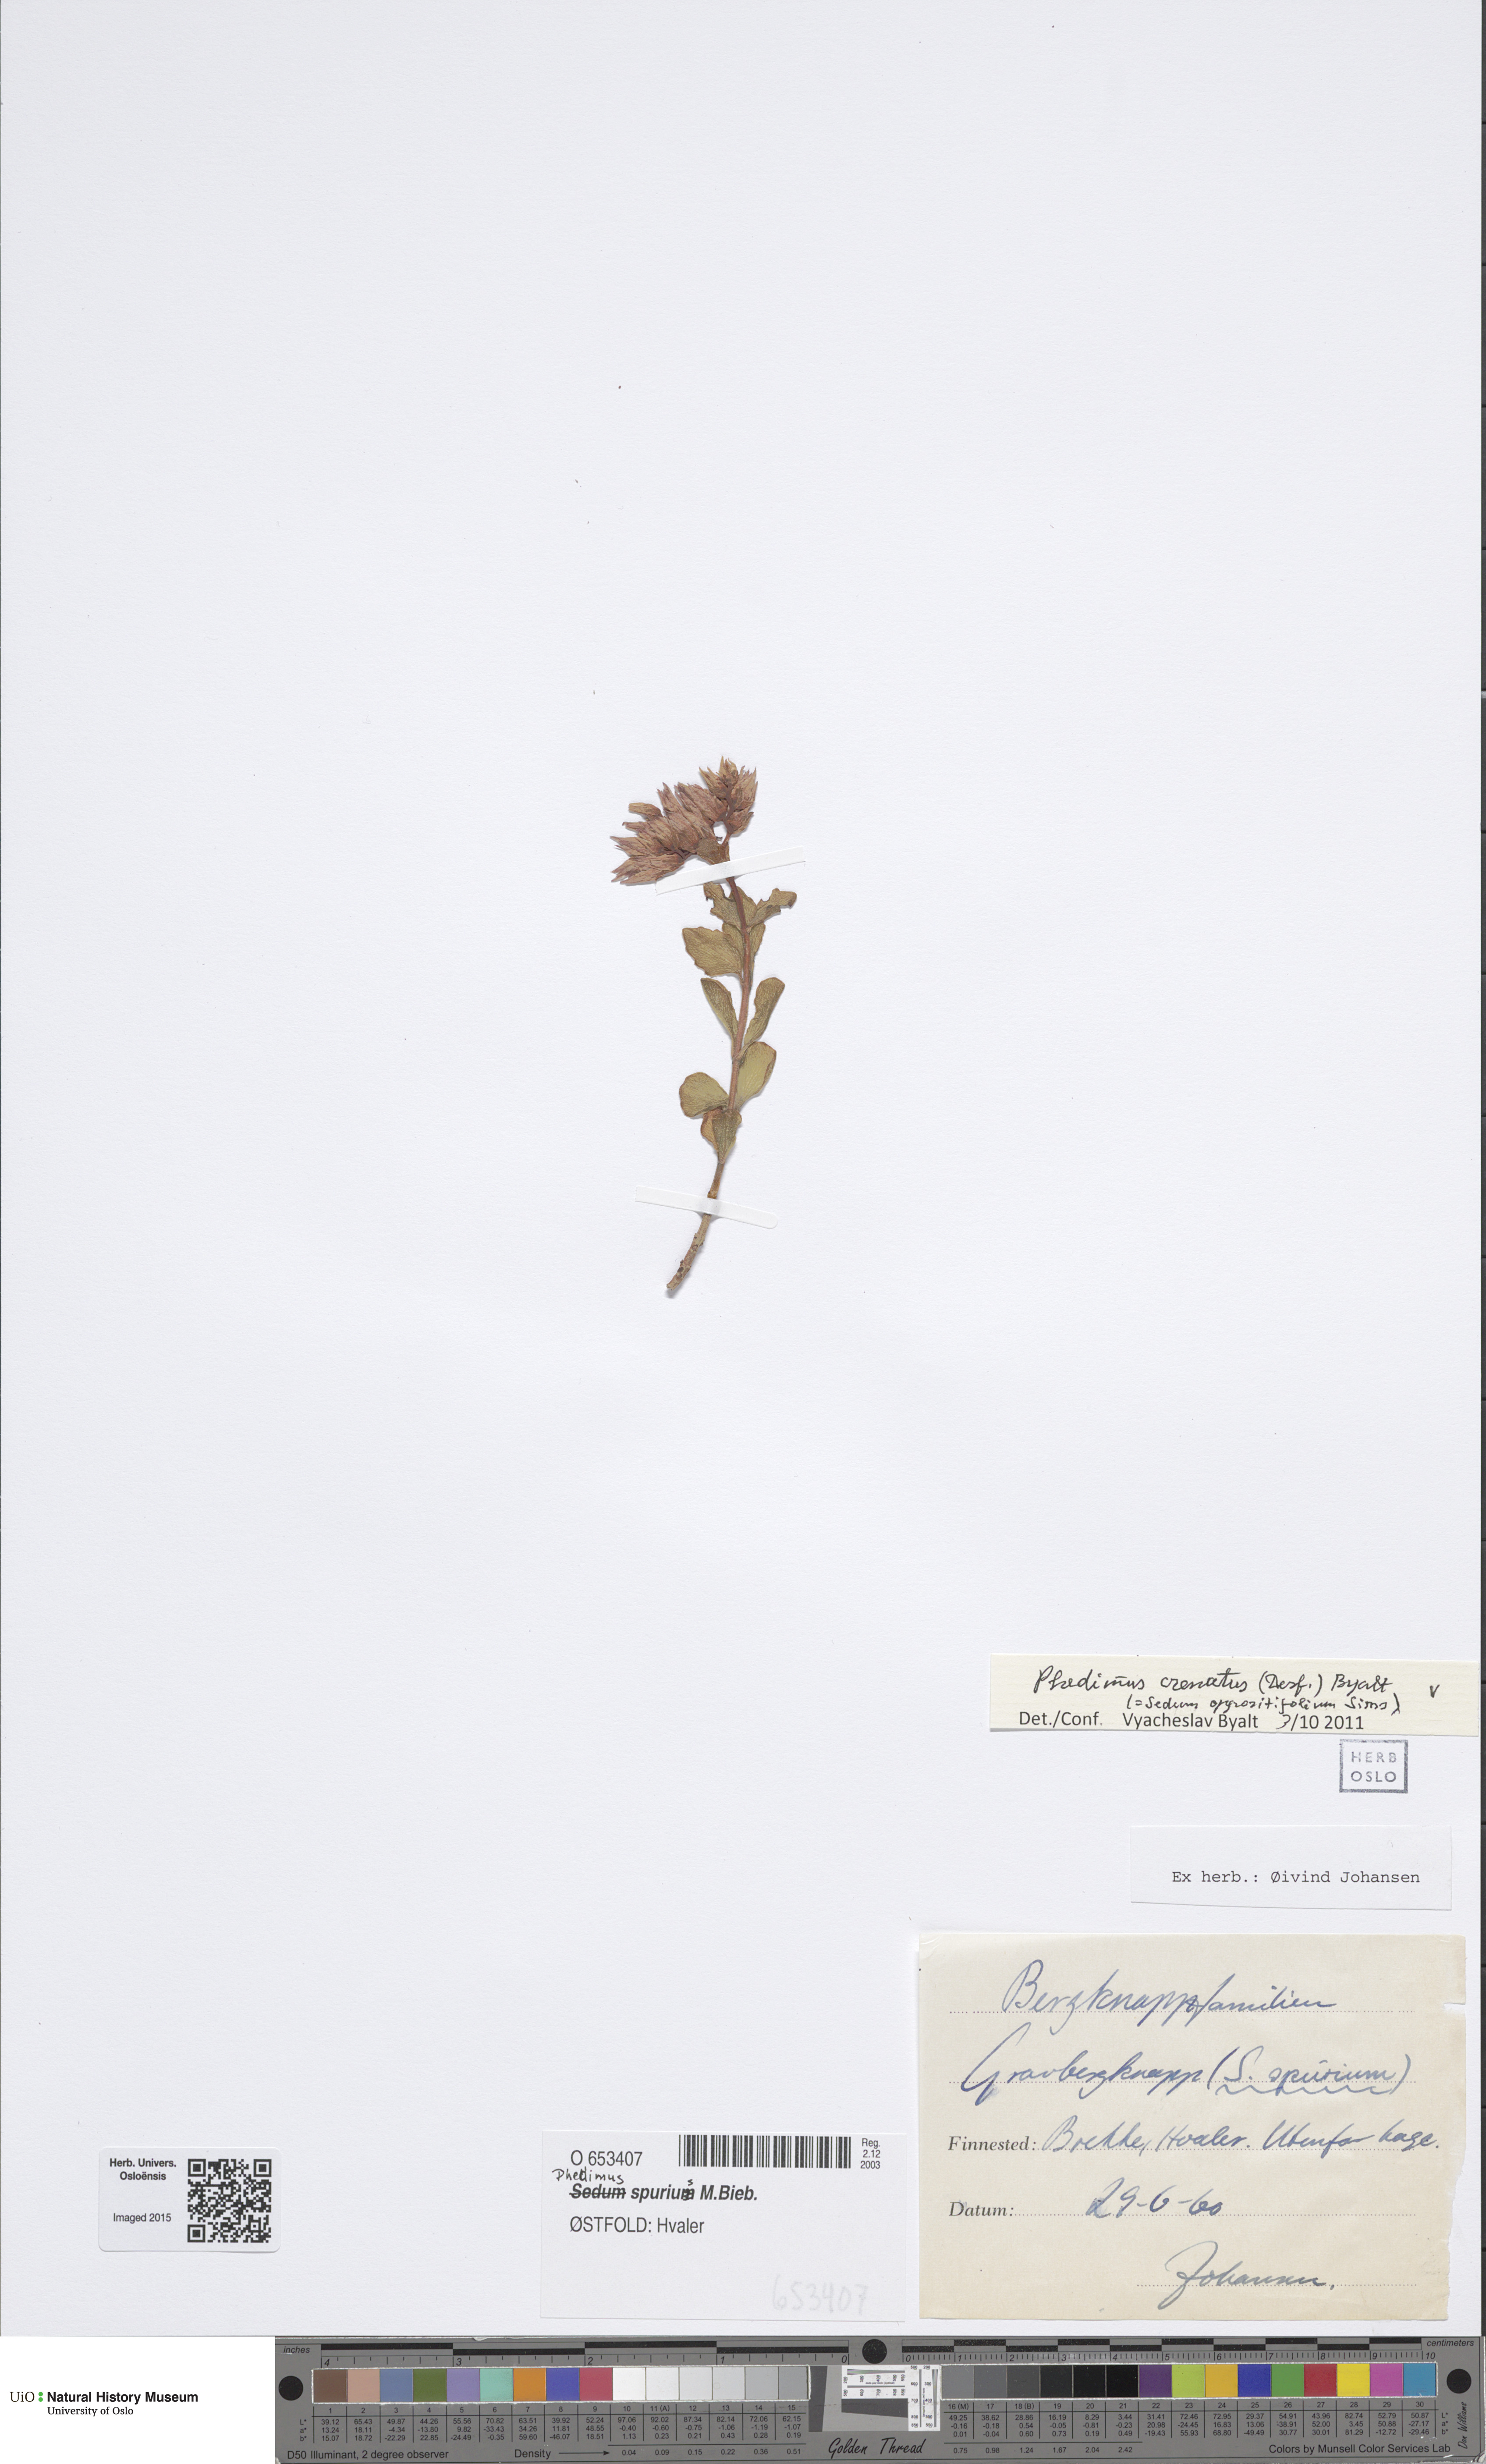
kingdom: Plantae
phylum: Tracheophyta
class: Magnoliopsida
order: Saxifragales
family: Crassulaceae
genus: Phedimus
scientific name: Phedimus spurius
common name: Caucasian stonecrop
